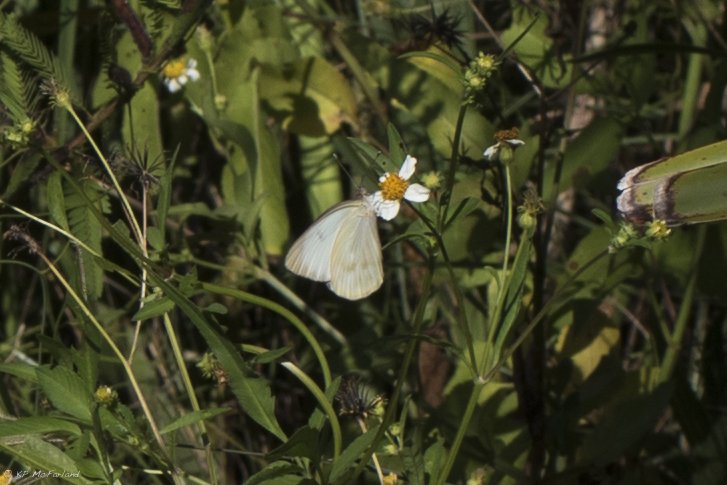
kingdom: Animalia
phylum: Arthropoda
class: Insecta
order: Lepidoptera
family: Pieridae
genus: Ascia
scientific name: Ascia monuste
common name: Great Southern White
